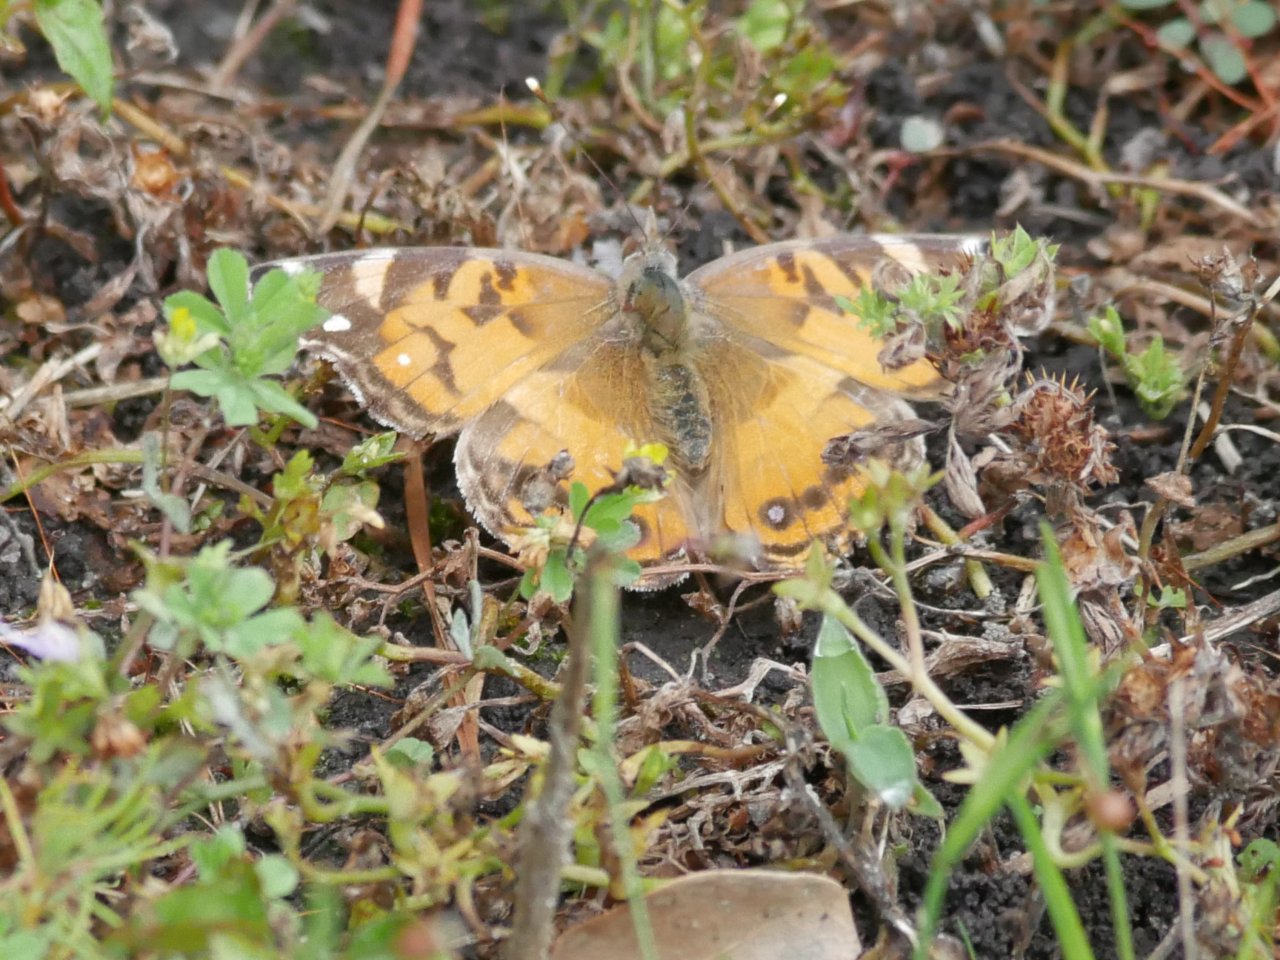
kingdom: Animalia
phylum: Arthropoda
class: Insecta
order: Lepidoptera
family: Nymphalidae
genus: Vanessa
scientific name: Vanessa virginiensis
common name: American Lady
